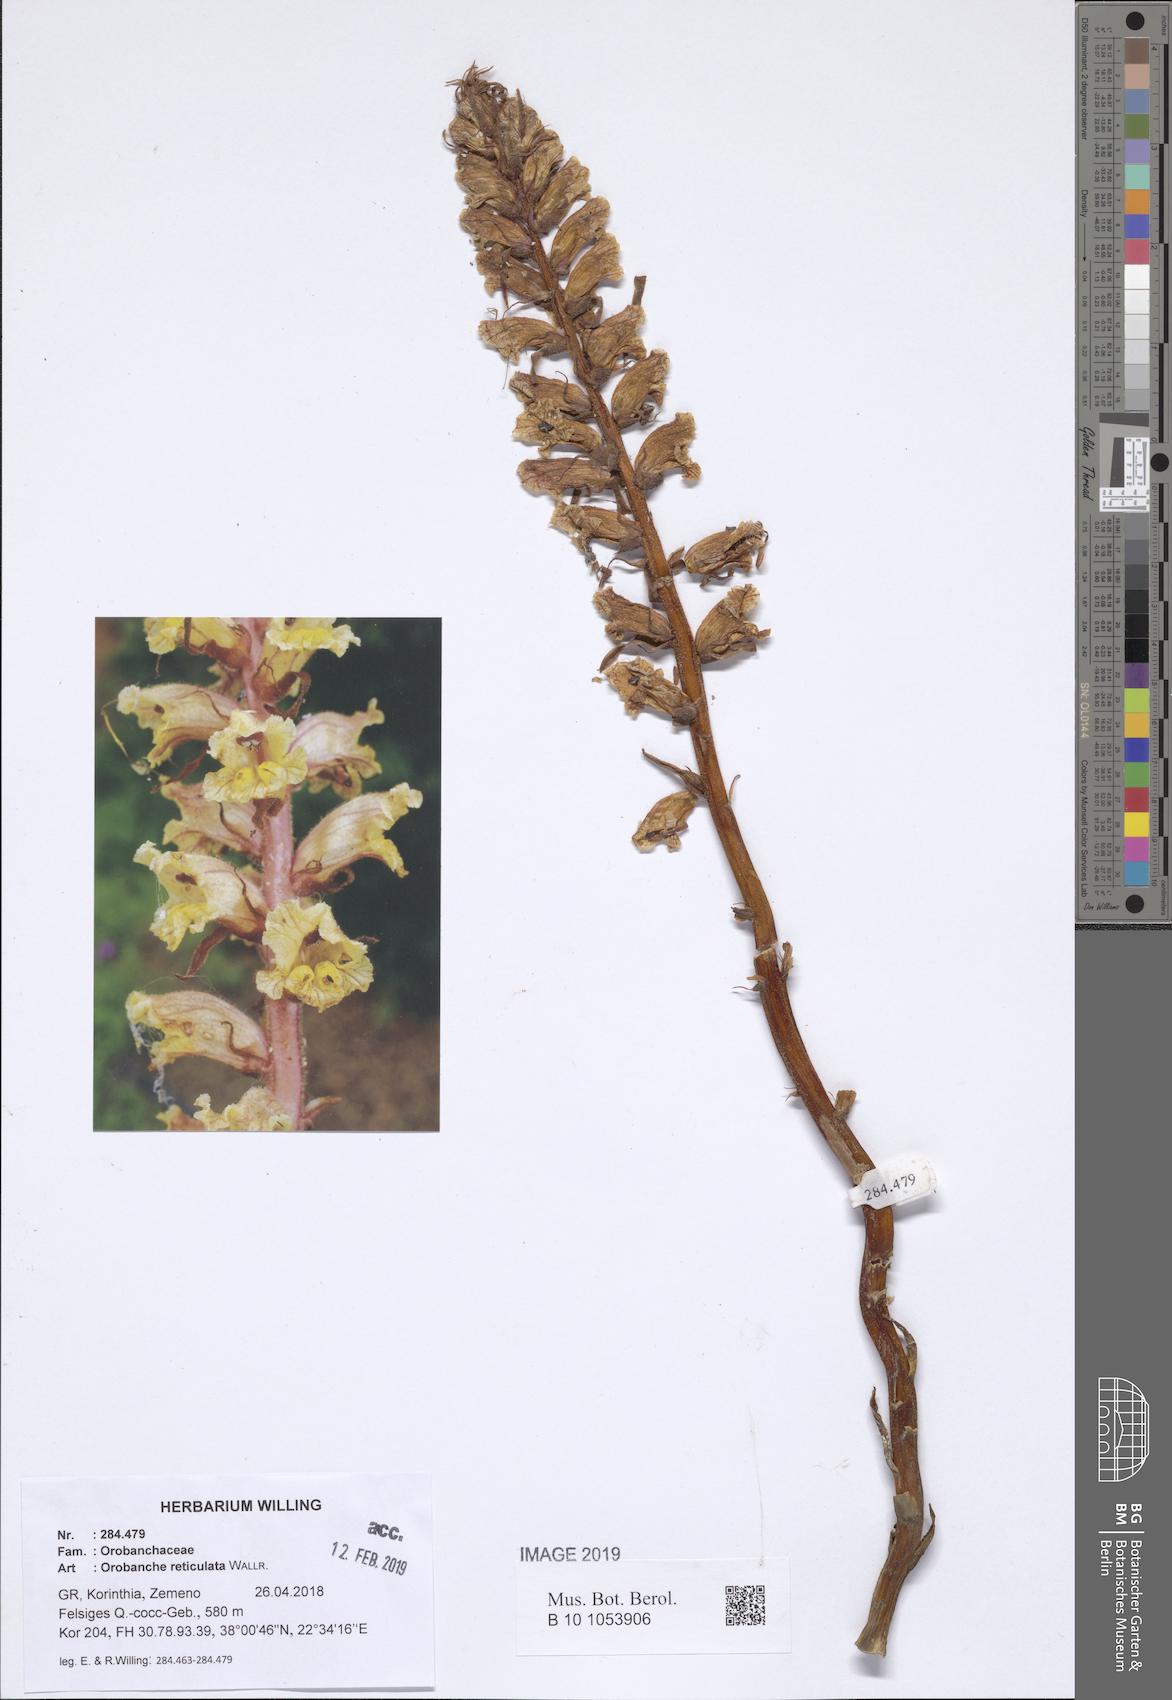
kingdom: Plantae
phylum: Tracheophyta
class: Magnoliopsida
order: Lamiales
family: Orobanchaceae
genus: Orobanche
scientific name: Orobanche reticulata
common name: Thistle broomrape
